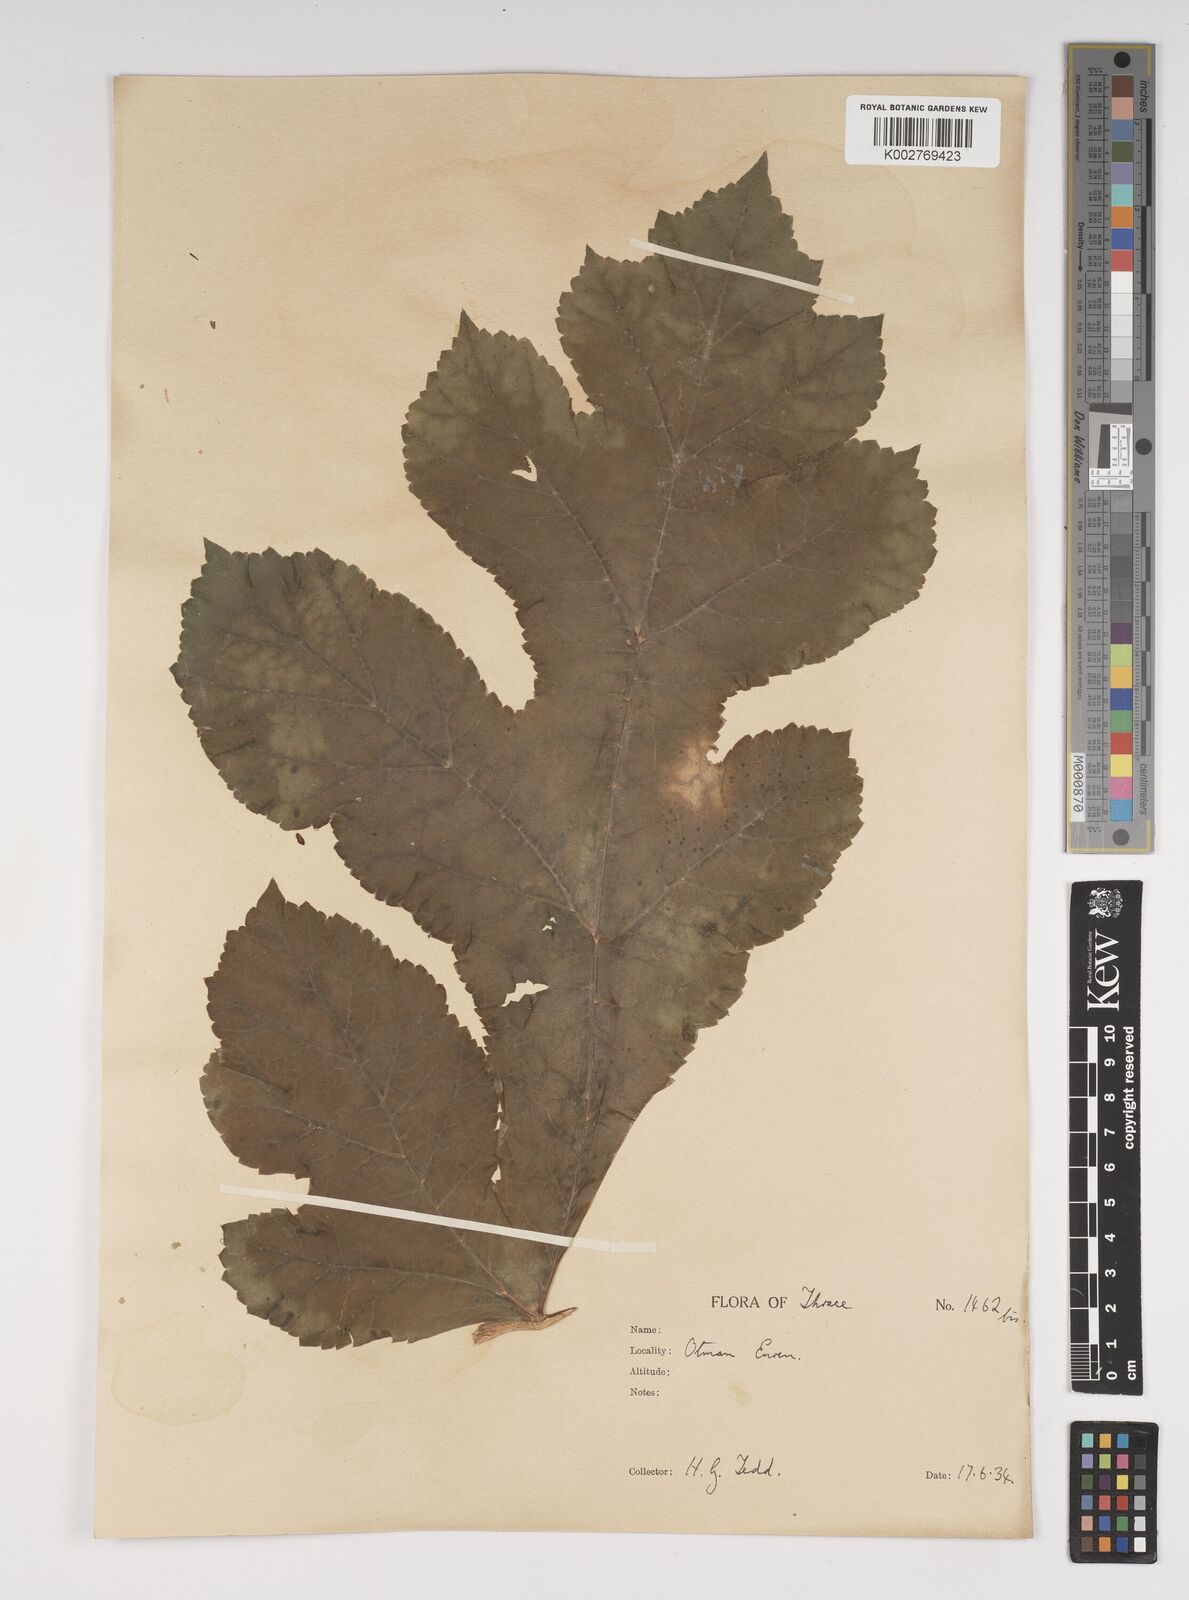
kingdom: Plantae
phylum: Tracheophyta
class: Magnoliopsida
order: Apiales
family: Apiaceae
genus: Heracleum
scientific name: Heracleum sphondylium
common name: Hogweed
